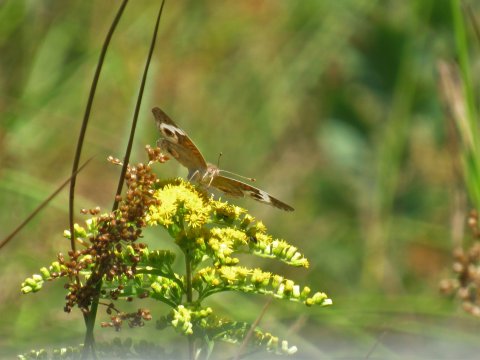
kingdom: Animalia
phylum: Arthropoda
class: Insecta
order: Lepidoptera
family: Nymphalidae
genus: Junonia
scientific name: Junonia coenia
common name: Common Buckeye
